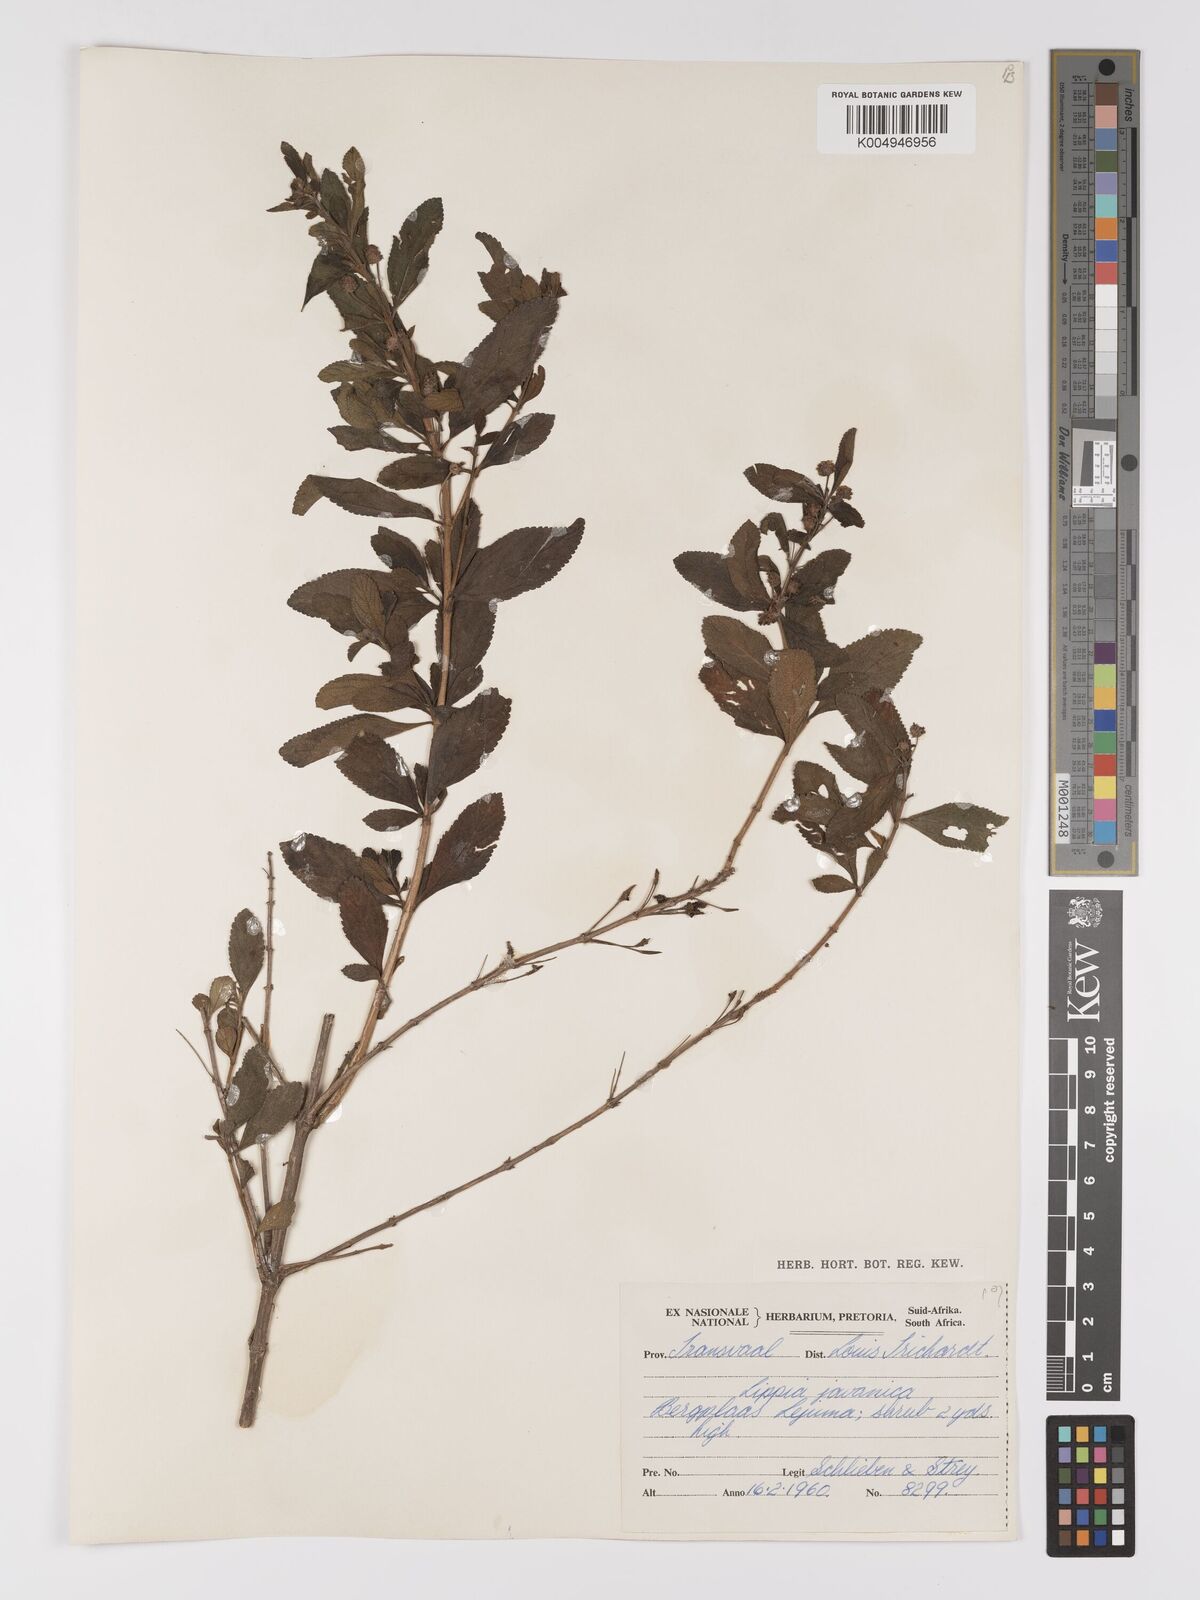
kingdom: Plantae
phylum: Tracheophyta
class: Magnoliopsida
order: Lamiales
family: Verbenaceae
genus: Lippia
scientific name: Lippia javanica
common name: Lemonbush
